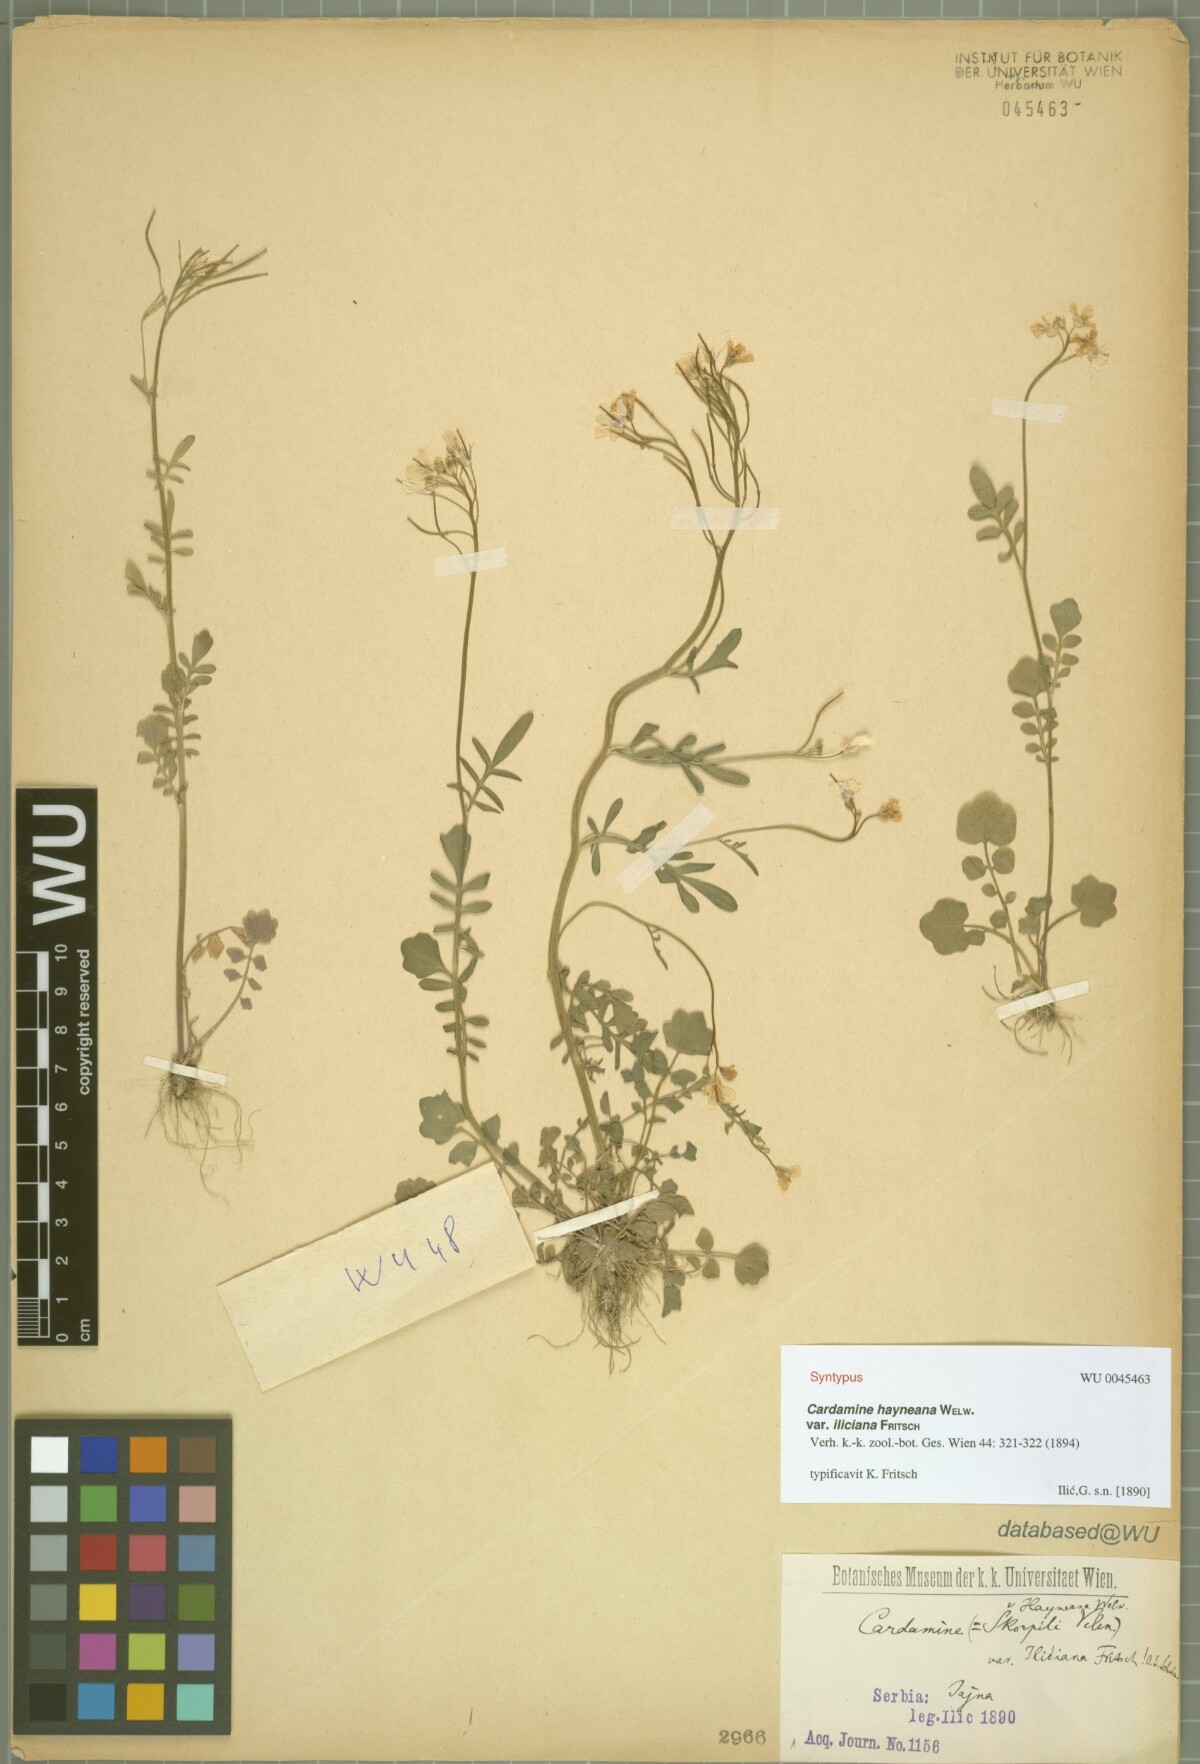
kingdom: Plantae
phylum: Tracheophyta
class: Magnoliopsida
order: Brassicales
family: Brassicaceae
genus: Cardamine
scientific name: Cardamine pratensis
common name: Cuckoo flower
